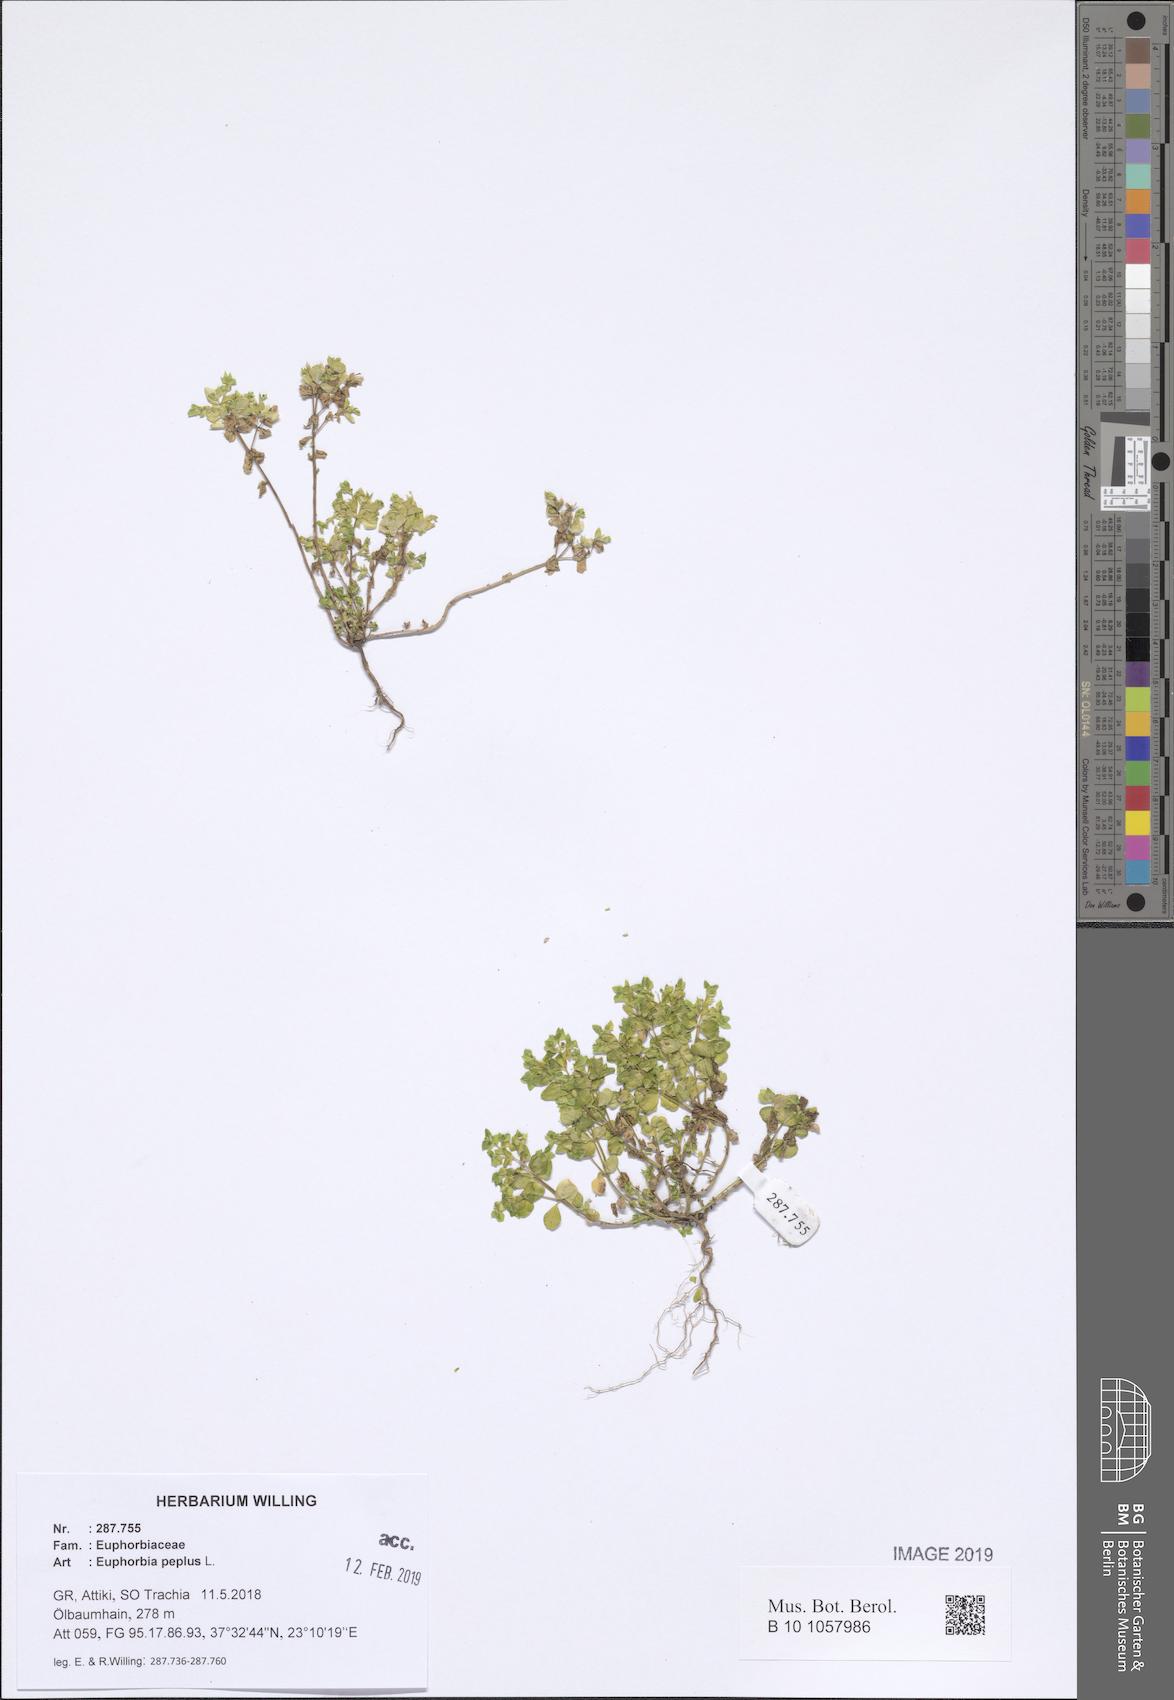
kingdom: Plantae
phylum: Tracheophyta
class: Magnoliopsida
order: Malpighiales
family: Euphorbiaceae
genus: Euphorbia
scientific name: Euphorbia peplus
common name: Petty spurge
